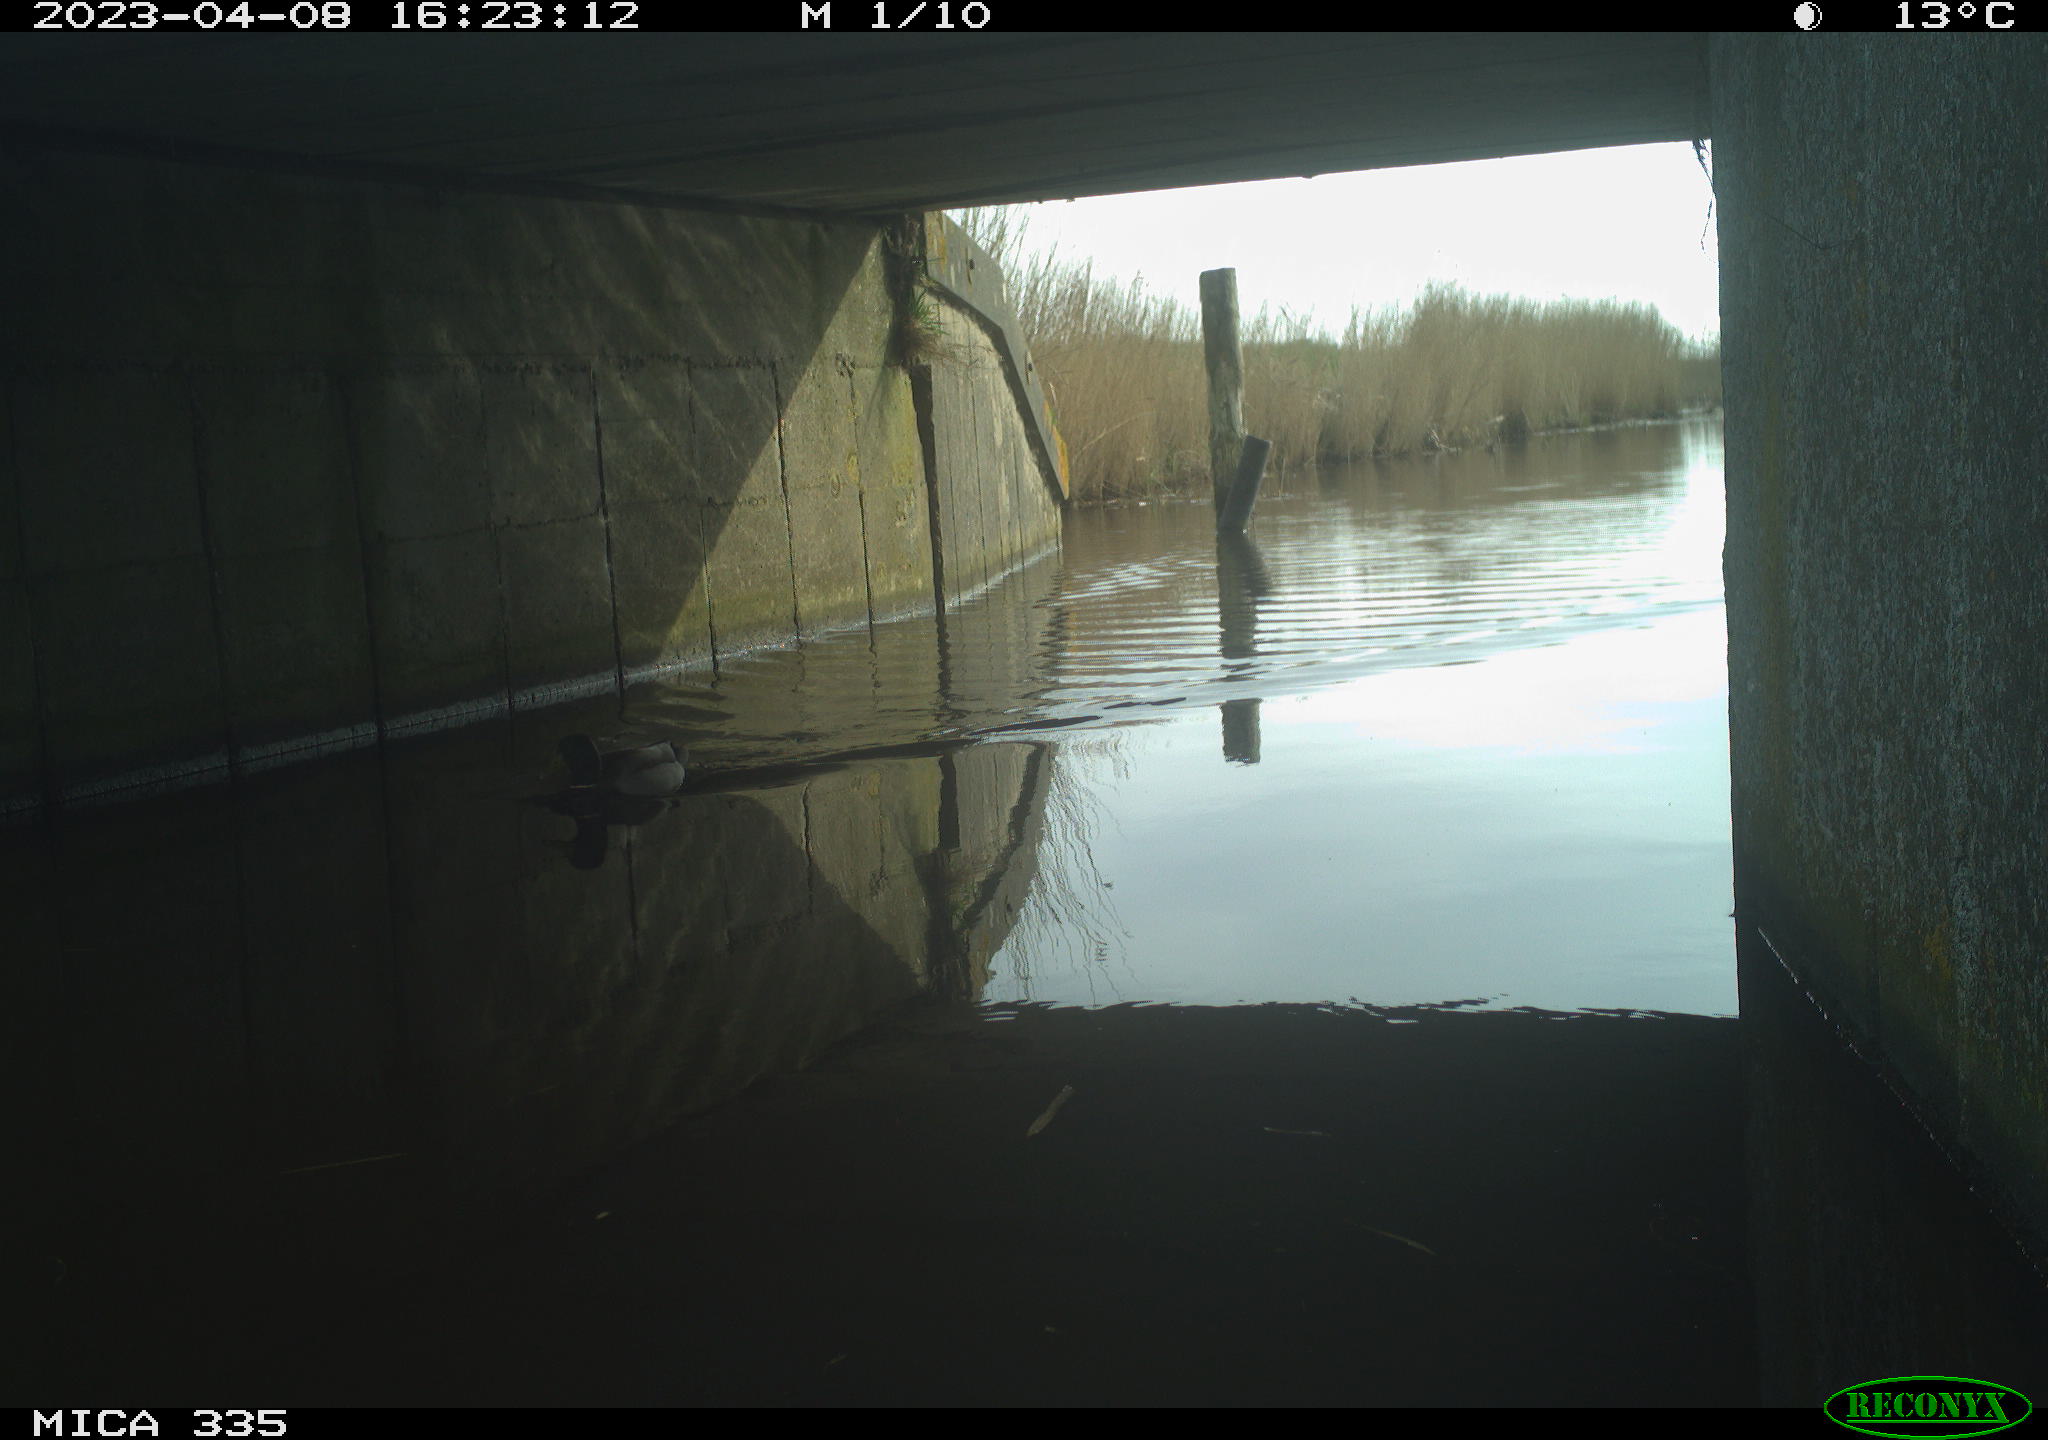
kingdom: Animalia
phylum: Chordata
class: Aves
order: Anseriformes
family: Anatidae
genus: Anas
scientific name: Anas
